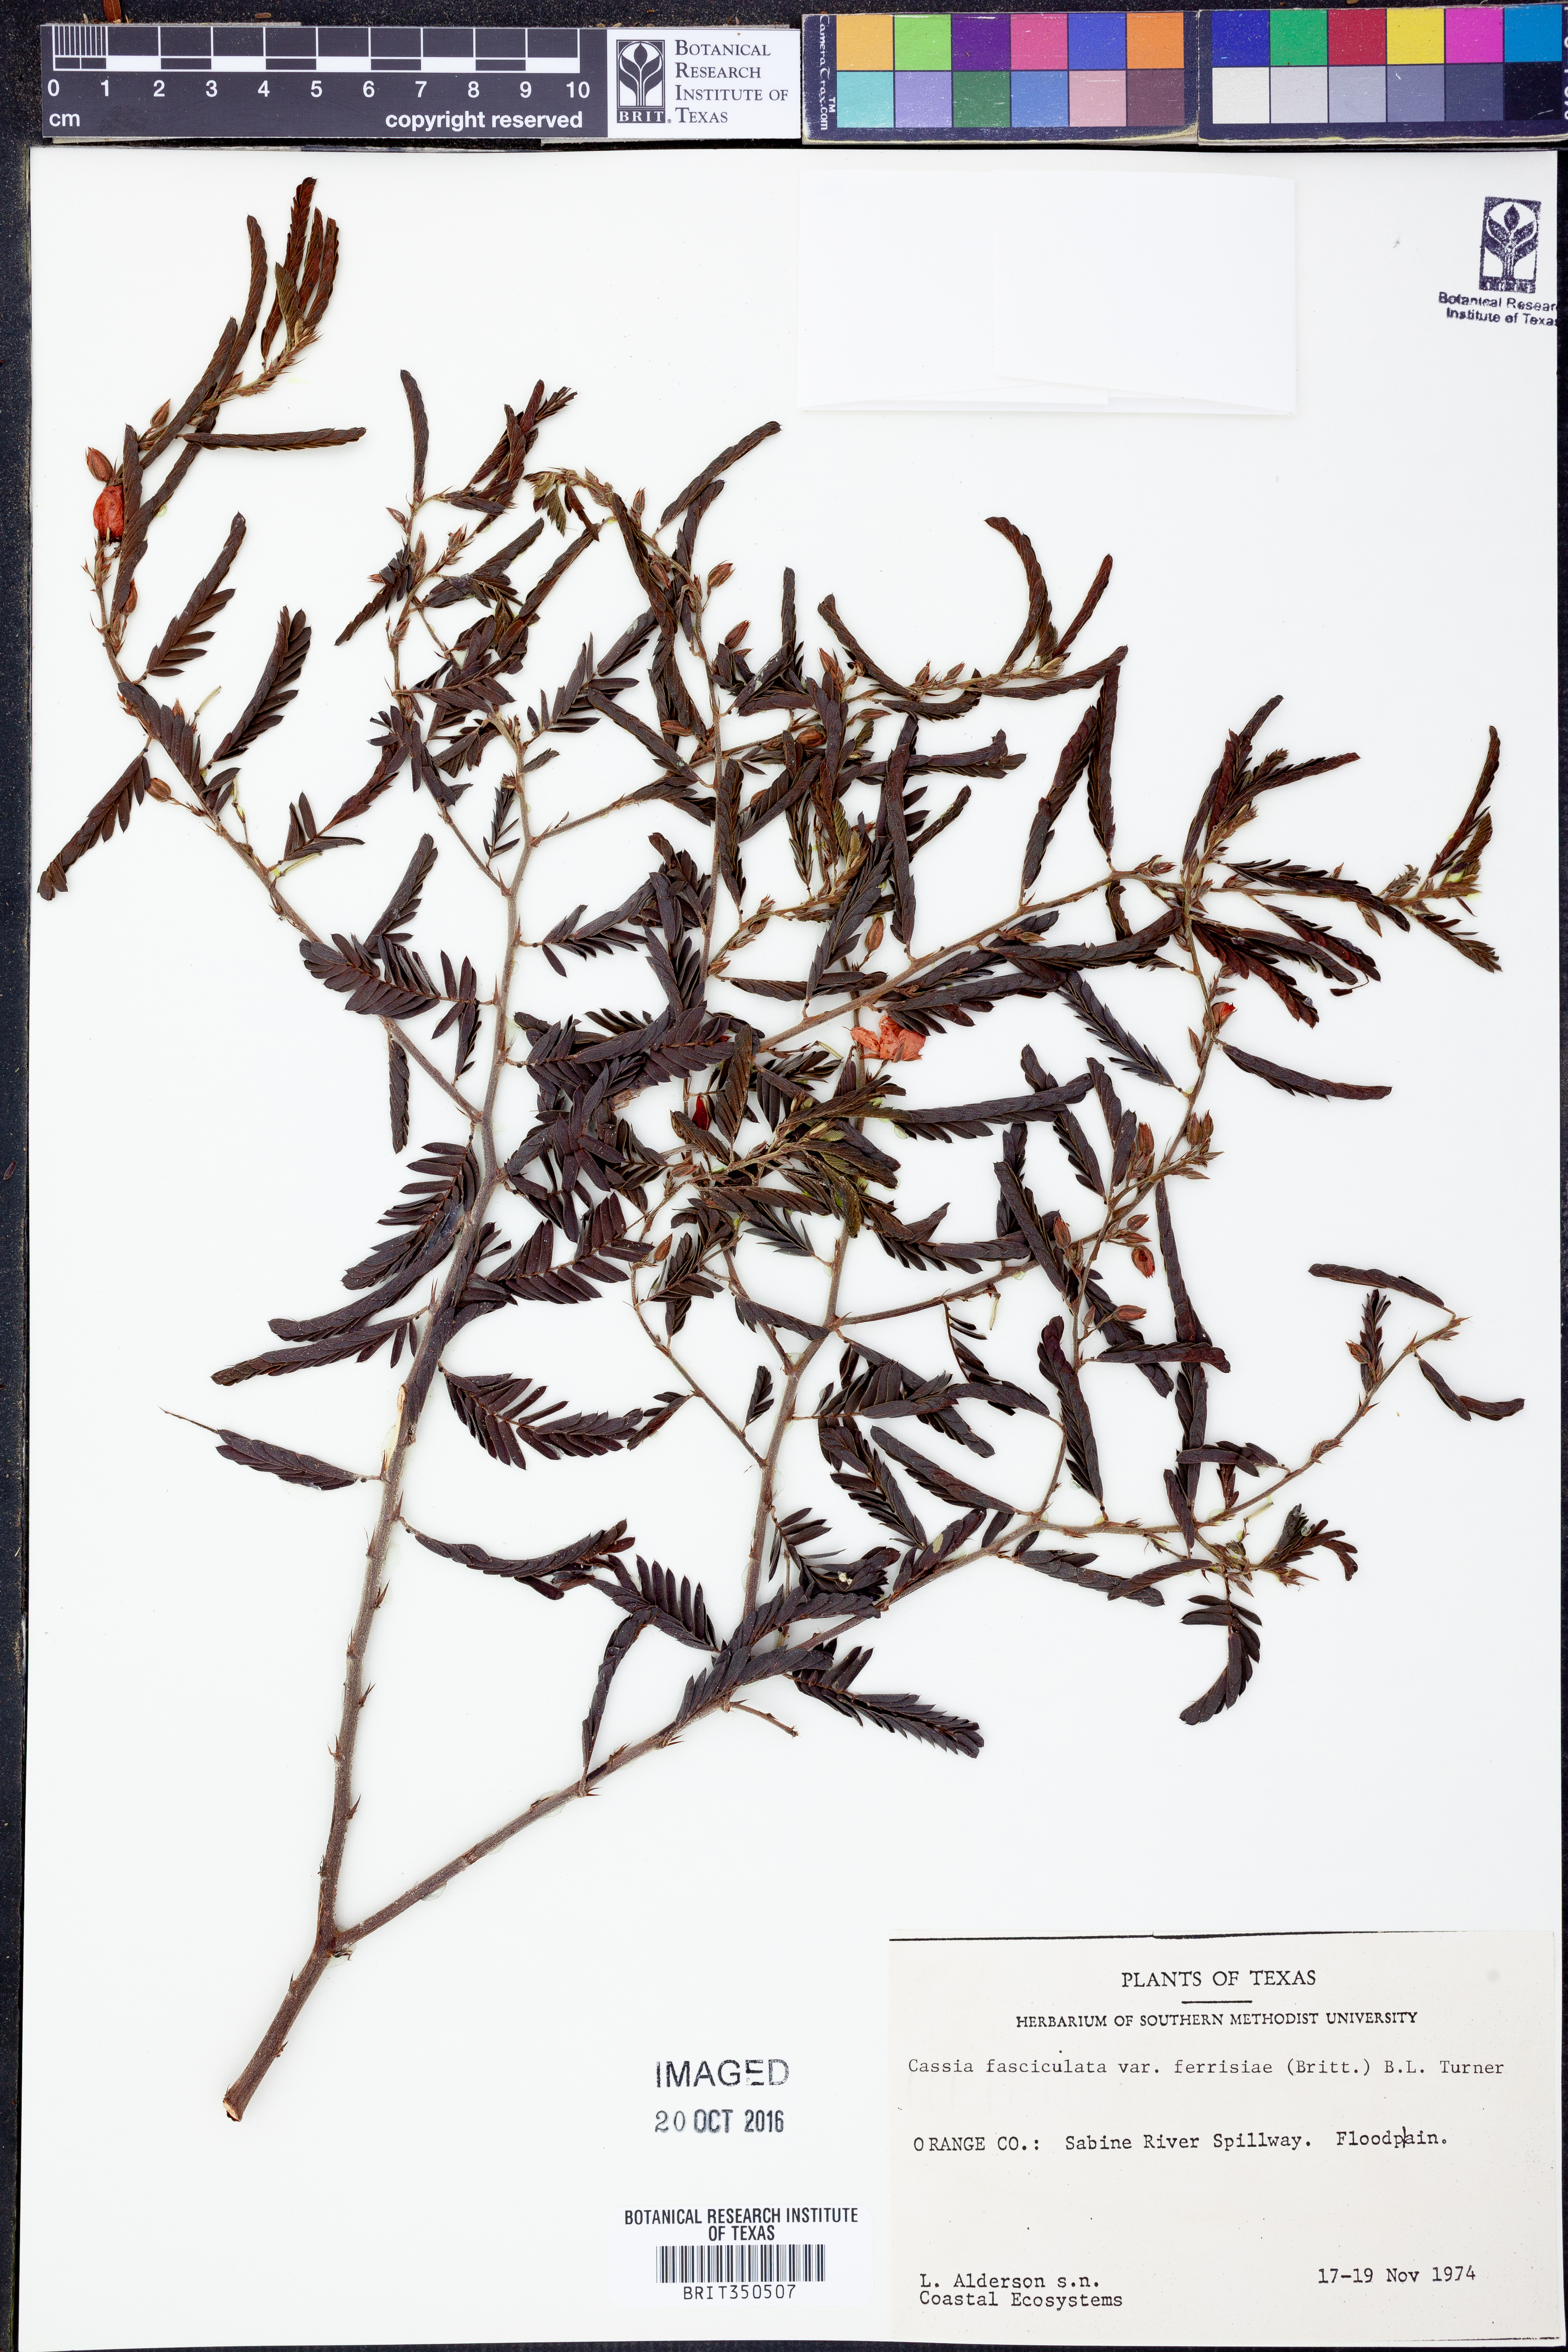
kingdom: Plantae
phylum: Tracheophyta
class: Magnoliopsida
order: Fabales
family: Fabaceae
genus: Chamaecrista
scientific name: Chamaecrista fasciculata
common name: Golden cassia
